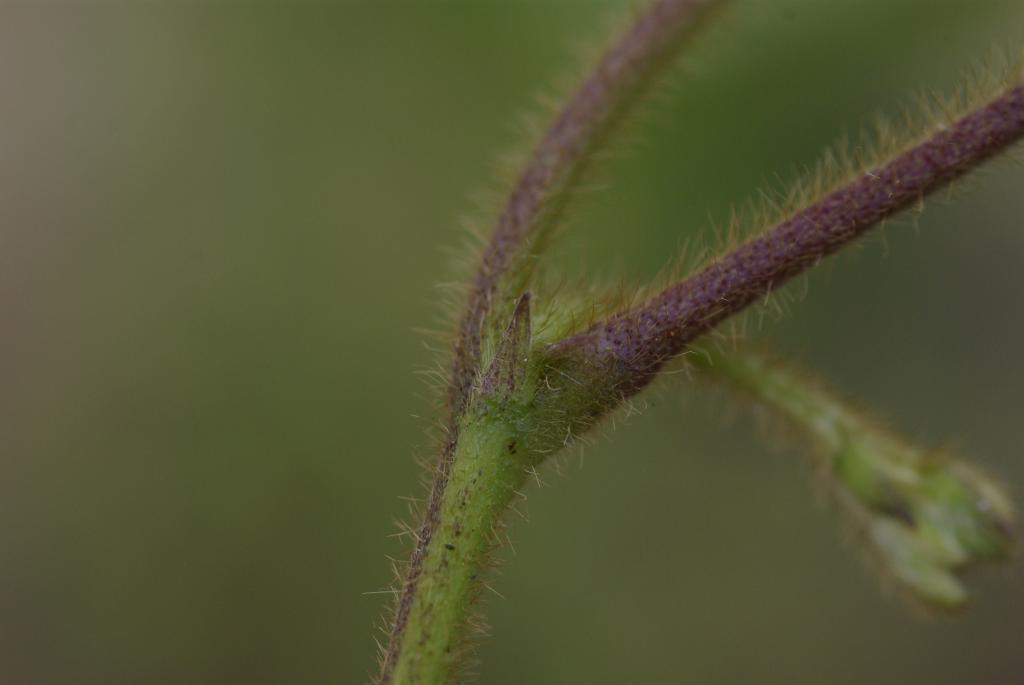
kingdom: Plantae
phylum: Tracheophyta
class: Magnoliopsida
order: Fabales
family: Fabaceae
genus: Neustanthus
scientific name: Neustanthus phaseoloides
